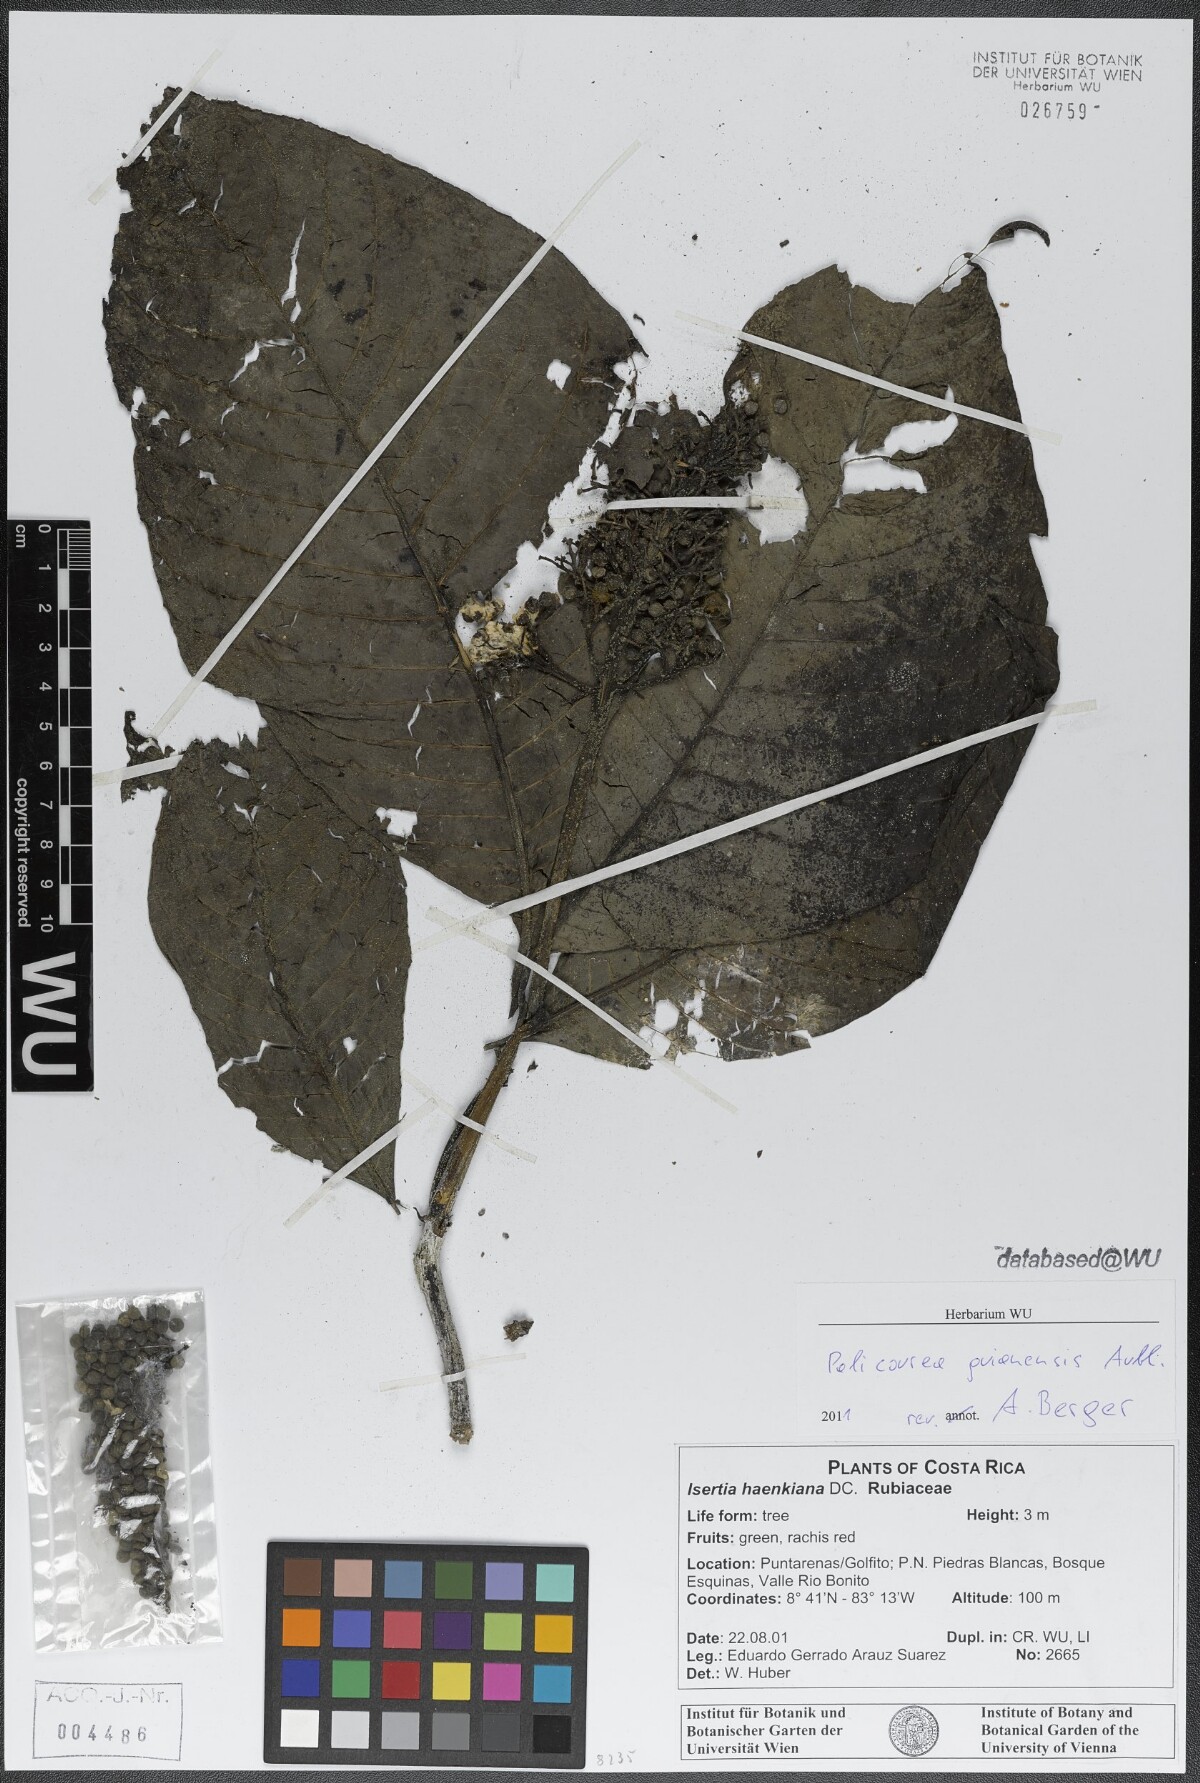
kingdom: Plantae
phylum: Tracheophyta
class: Magnoliopsida
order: Gentianales
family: Rubiaceae
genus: Palicourea
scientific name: Palicourea guianensis
